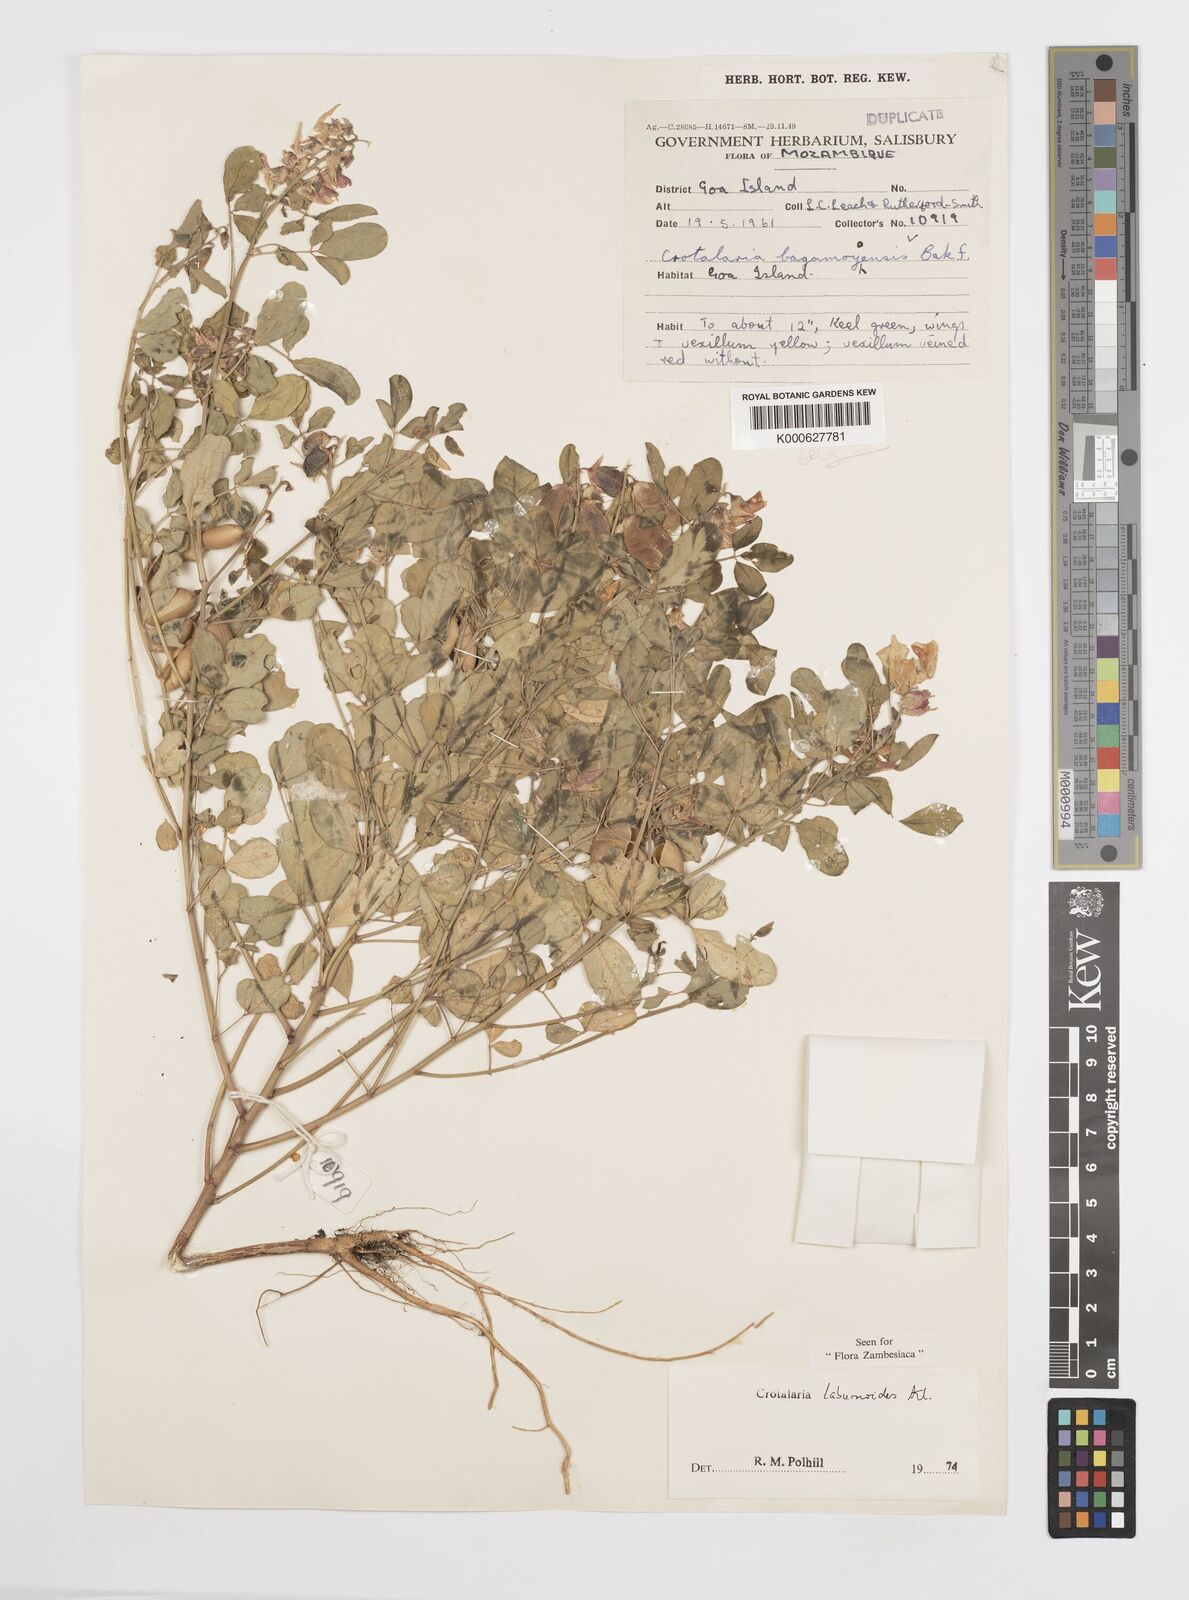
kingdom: Plantae
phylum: Tracheophyta
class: Magnoliopsida
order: Fabales
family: Fabaceae
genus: Crotalaria
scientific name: Crotalaria laburnoides
